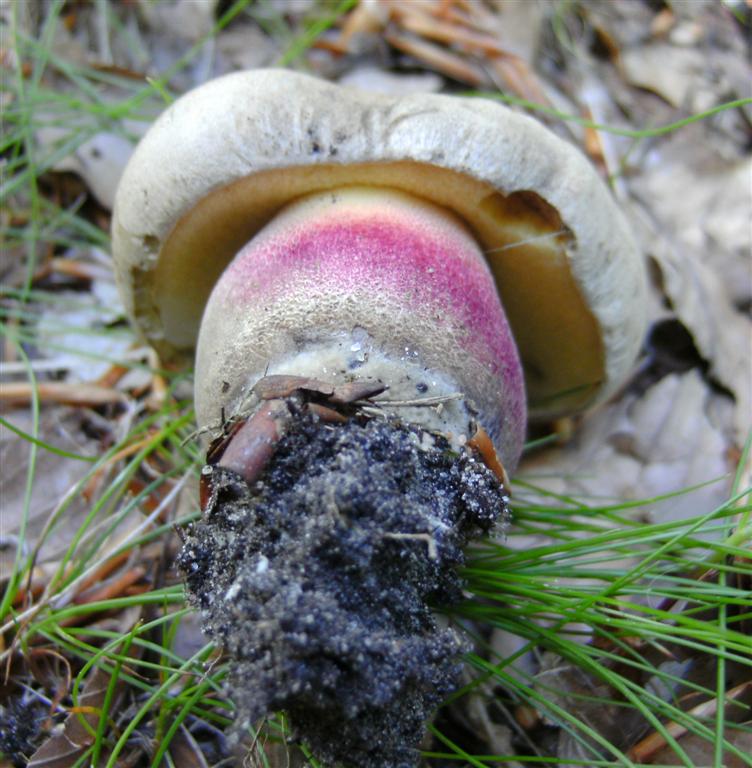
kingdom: Fungi
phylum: Basidiomycota
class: Agaricomycetes
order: Boletales
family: Boletaceae
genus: Caloboletus
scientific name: Caloboletus calopus
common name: skønfodet rørhat
